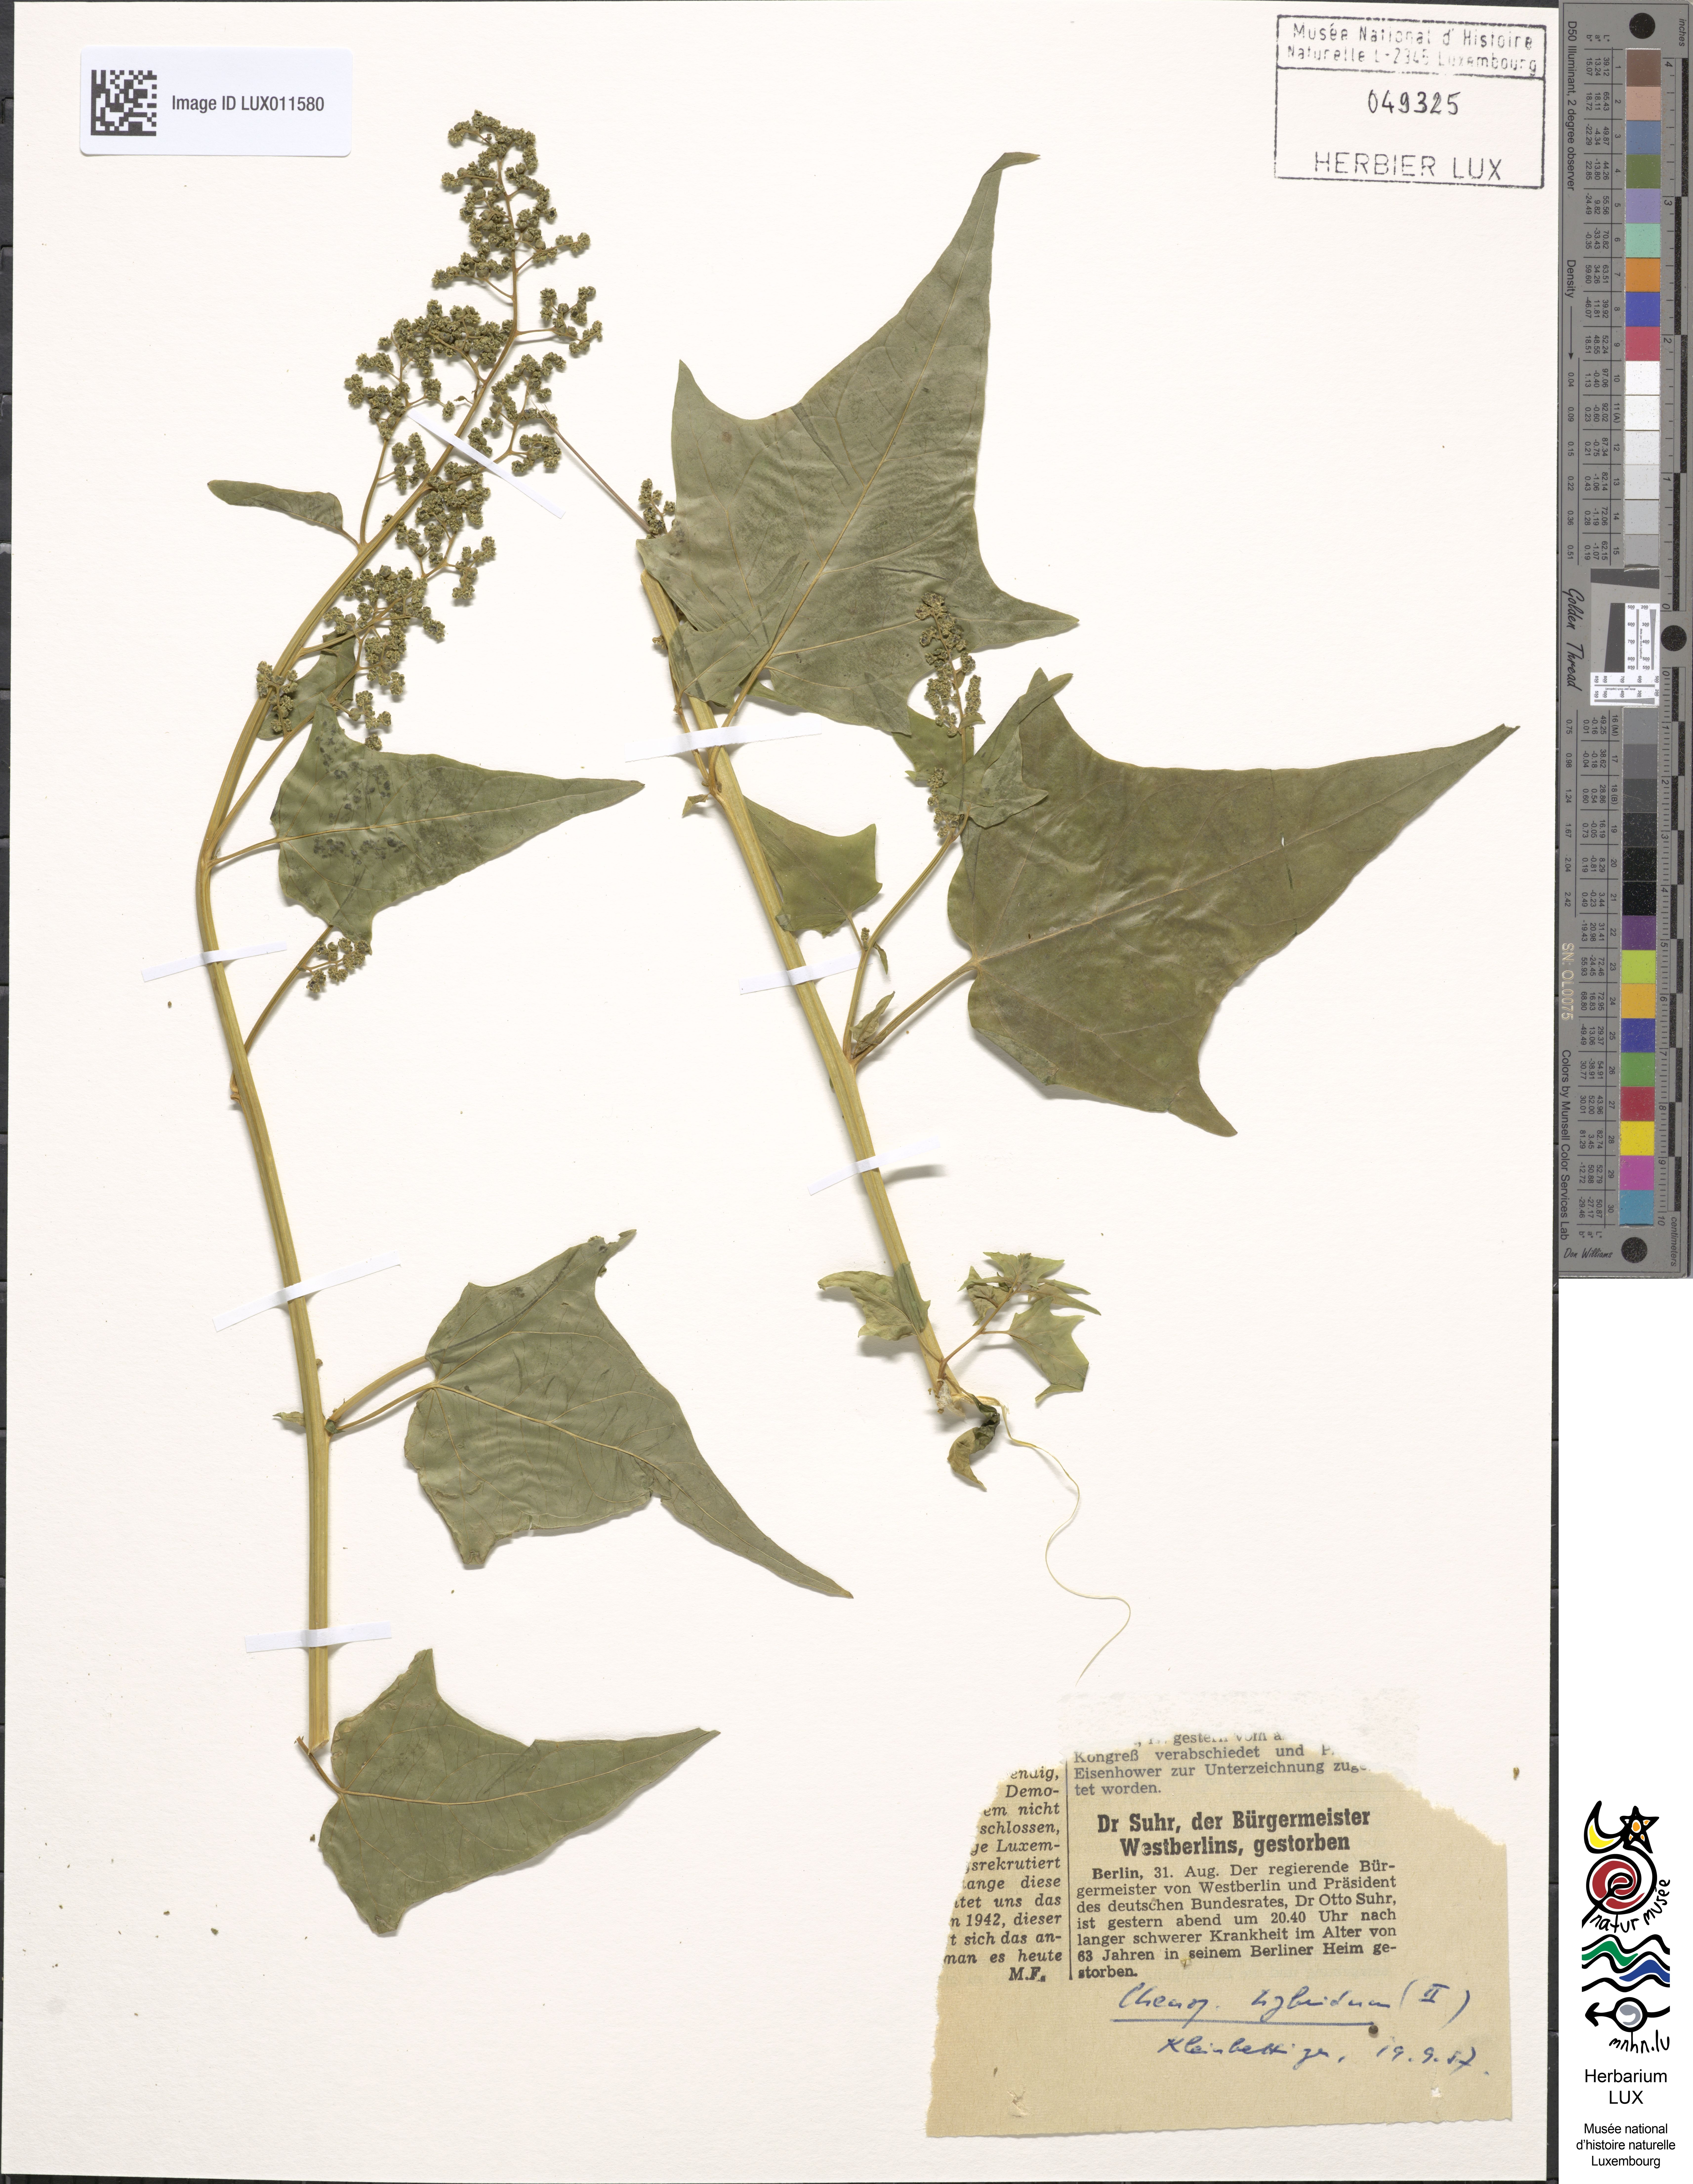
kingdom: Plantae
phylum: Tracheophyta
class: Magnoliopsida
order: Caryophyllales
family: Amaranthaceae
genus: Chenopodiastrum
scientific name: Chenopodiastrum hybridum
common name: Mapleleaf goosefoot
